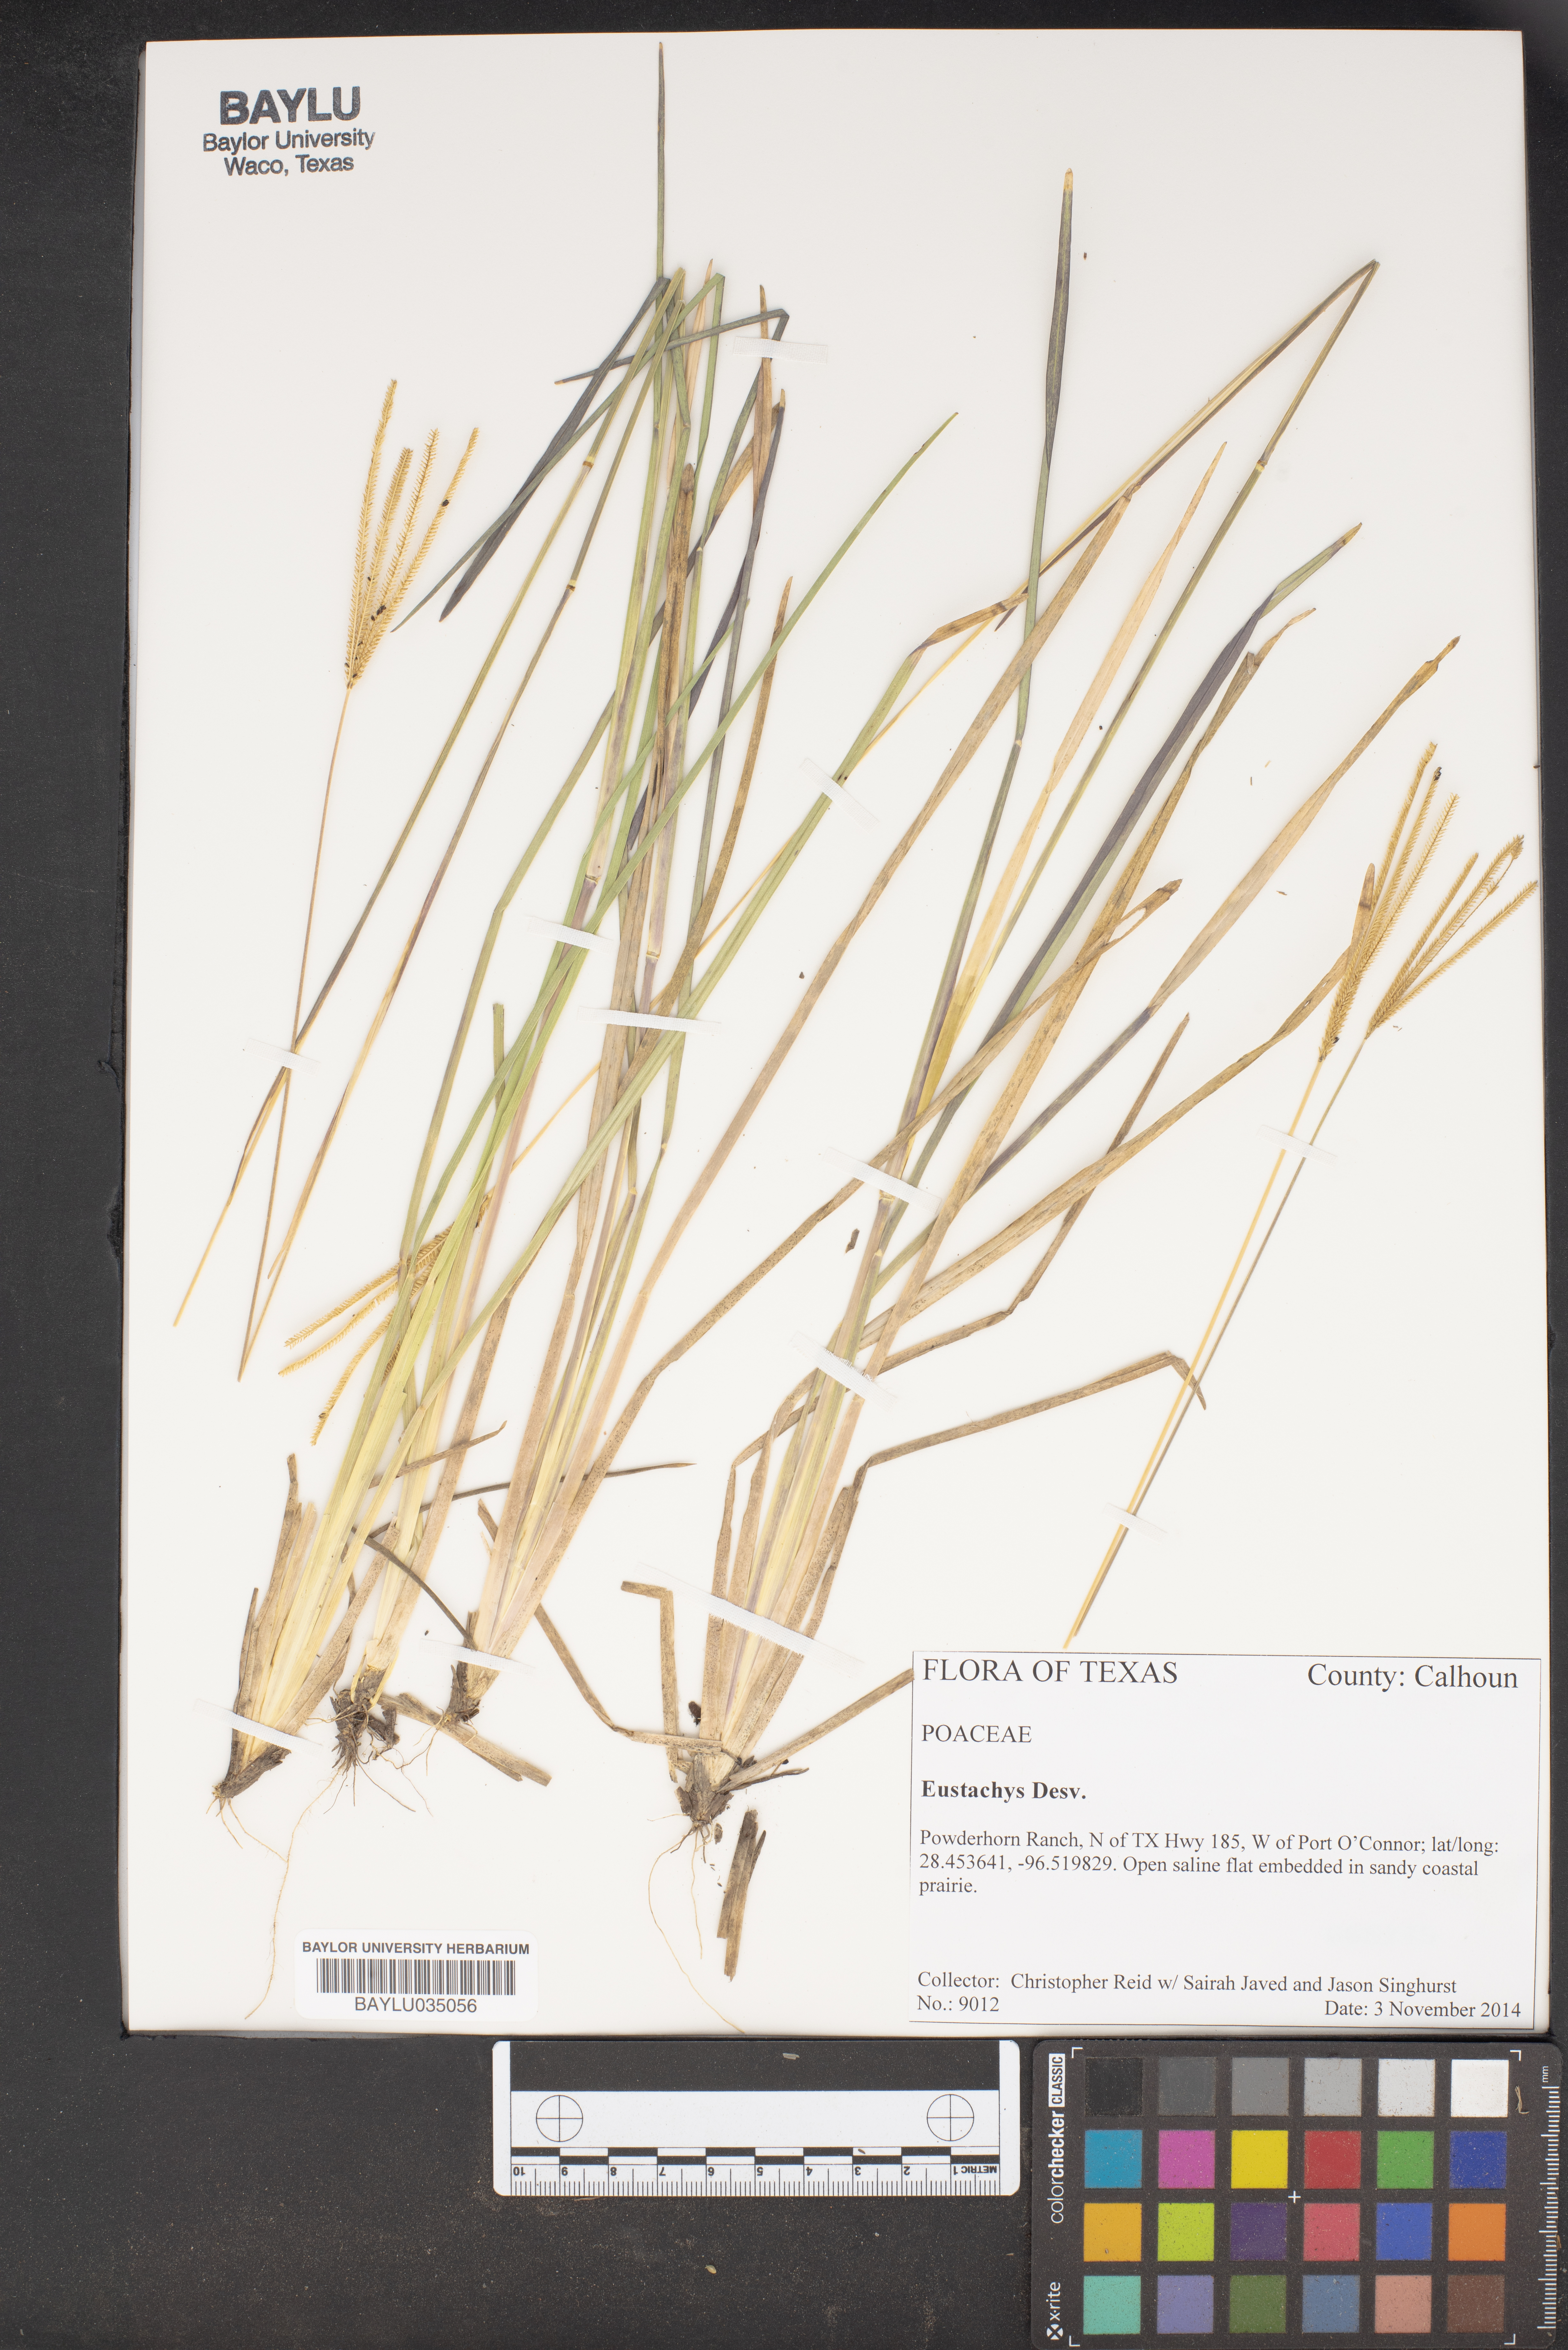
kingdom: Plantae
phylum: Tracheophyta
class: Liliopsida
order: Poales
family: Poaceae
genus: Eustachys
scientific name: Eustachys
